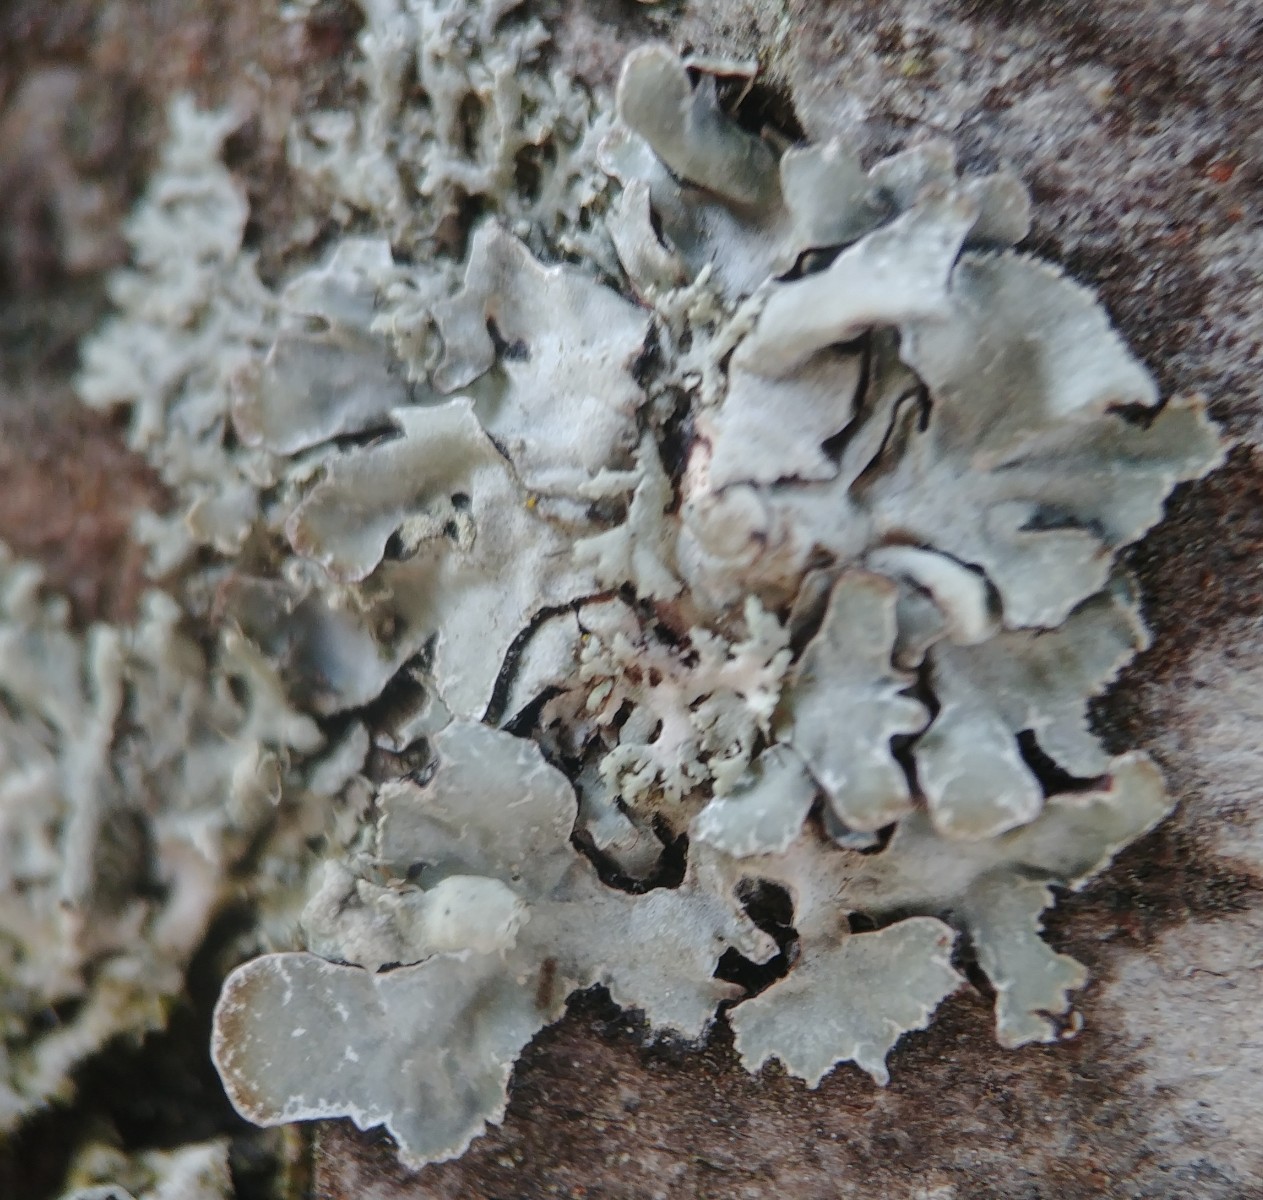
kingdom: Fungi
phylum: Ascomycota
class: Lecanoromycetes
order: Lecanorales
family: Parmeliaceae
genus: Parmelia
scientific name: Parmelia sulcata
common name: rynket skållav
